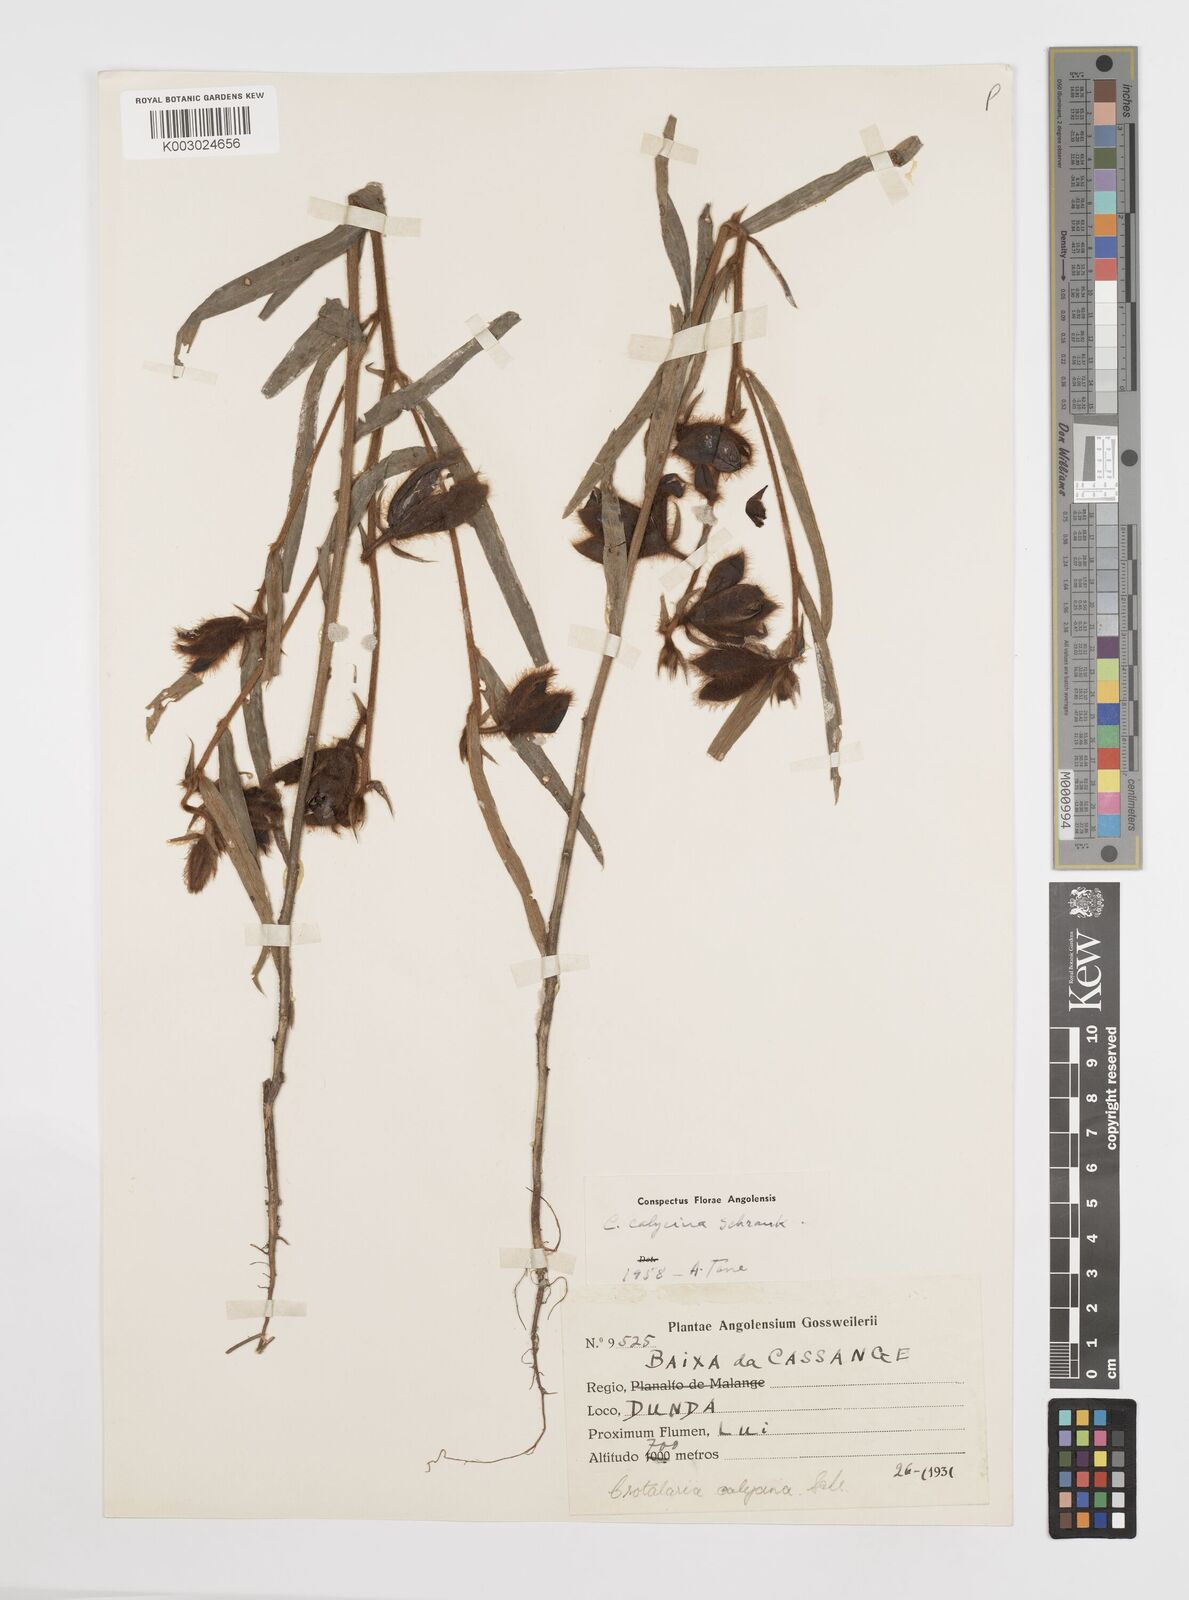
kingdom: Plantae
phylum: Tracheophyta
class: Magnoliopsida
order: Fabales
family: Fabaceae
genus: Crotalaria
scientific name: Crotalaria calycina
